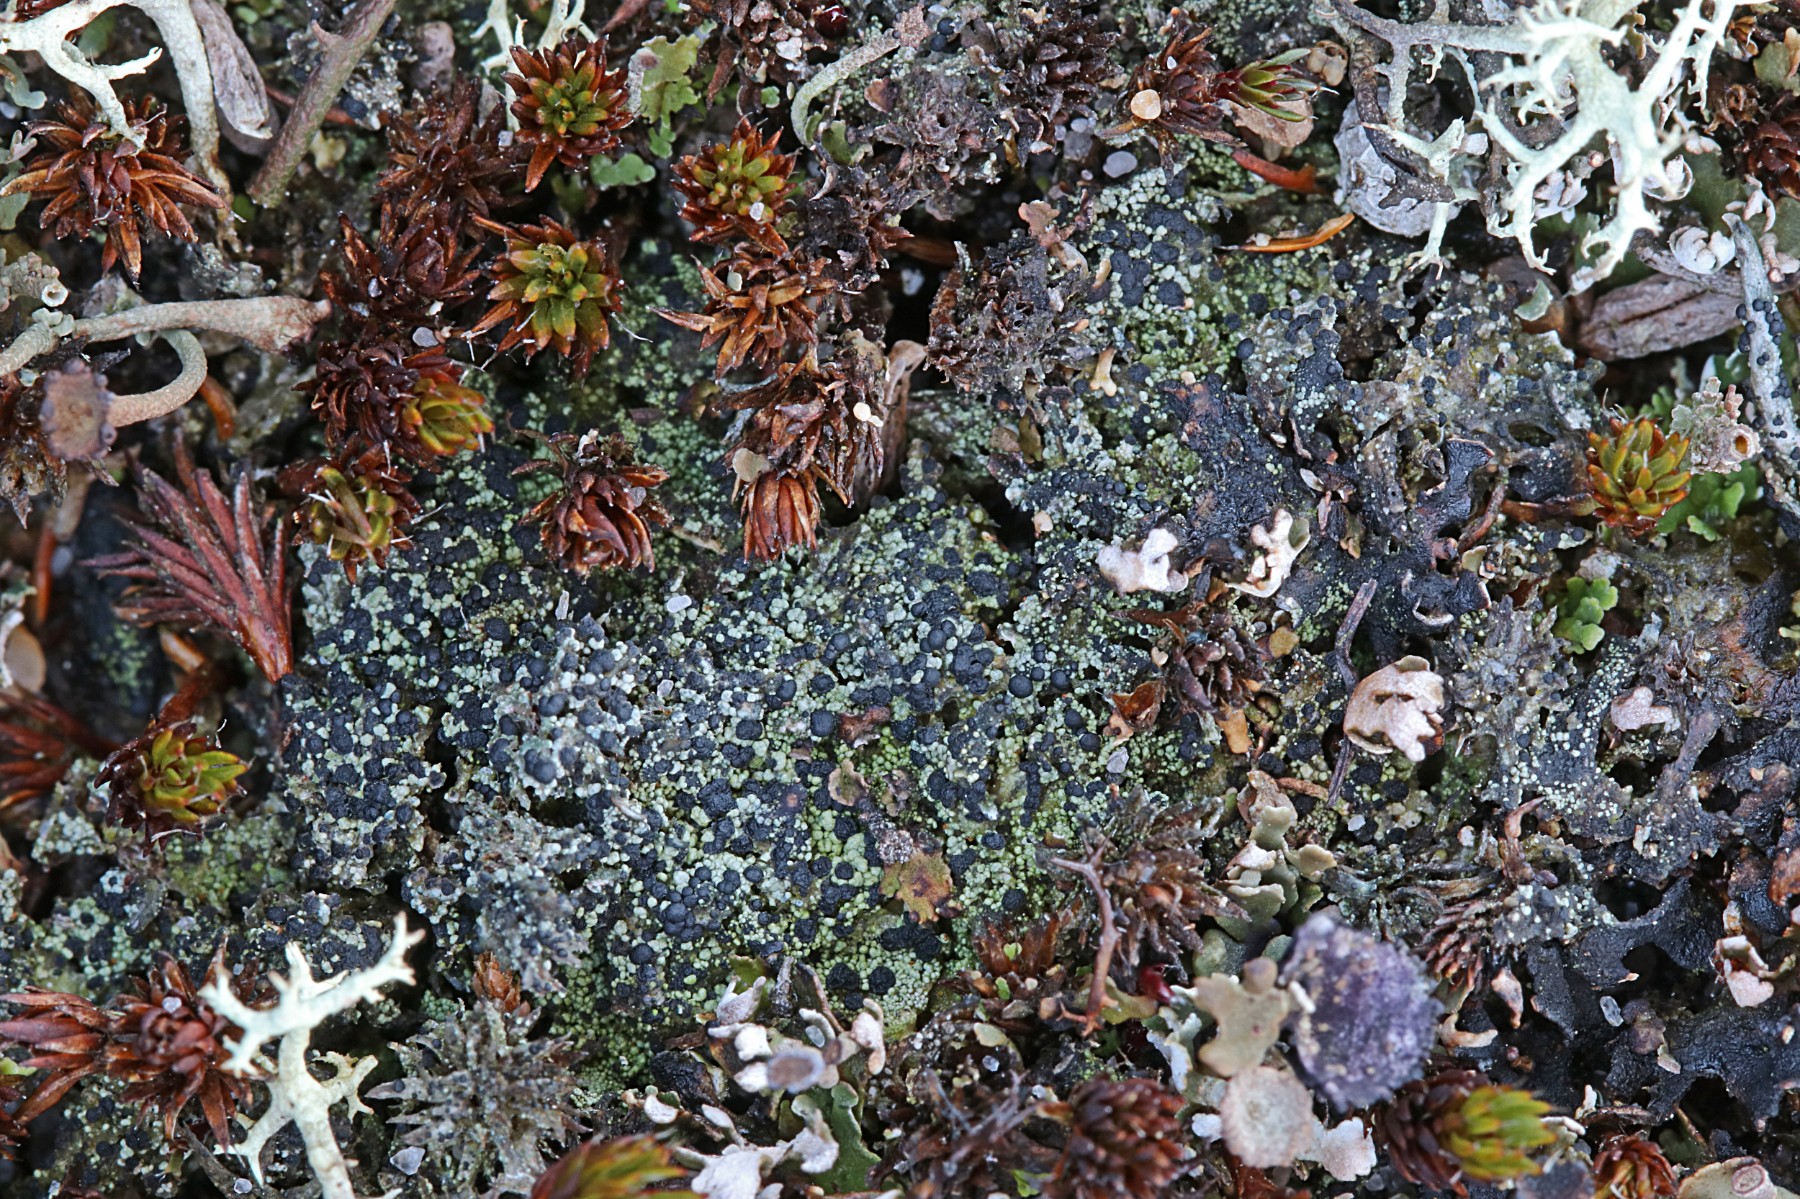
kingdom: Fungi
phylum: Ascomycota
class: Lecanoromycetes
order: Lecanorales
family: Byssolomataceae
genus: Micarea
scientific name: Micarea lignaria
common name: tørve-knaplav
